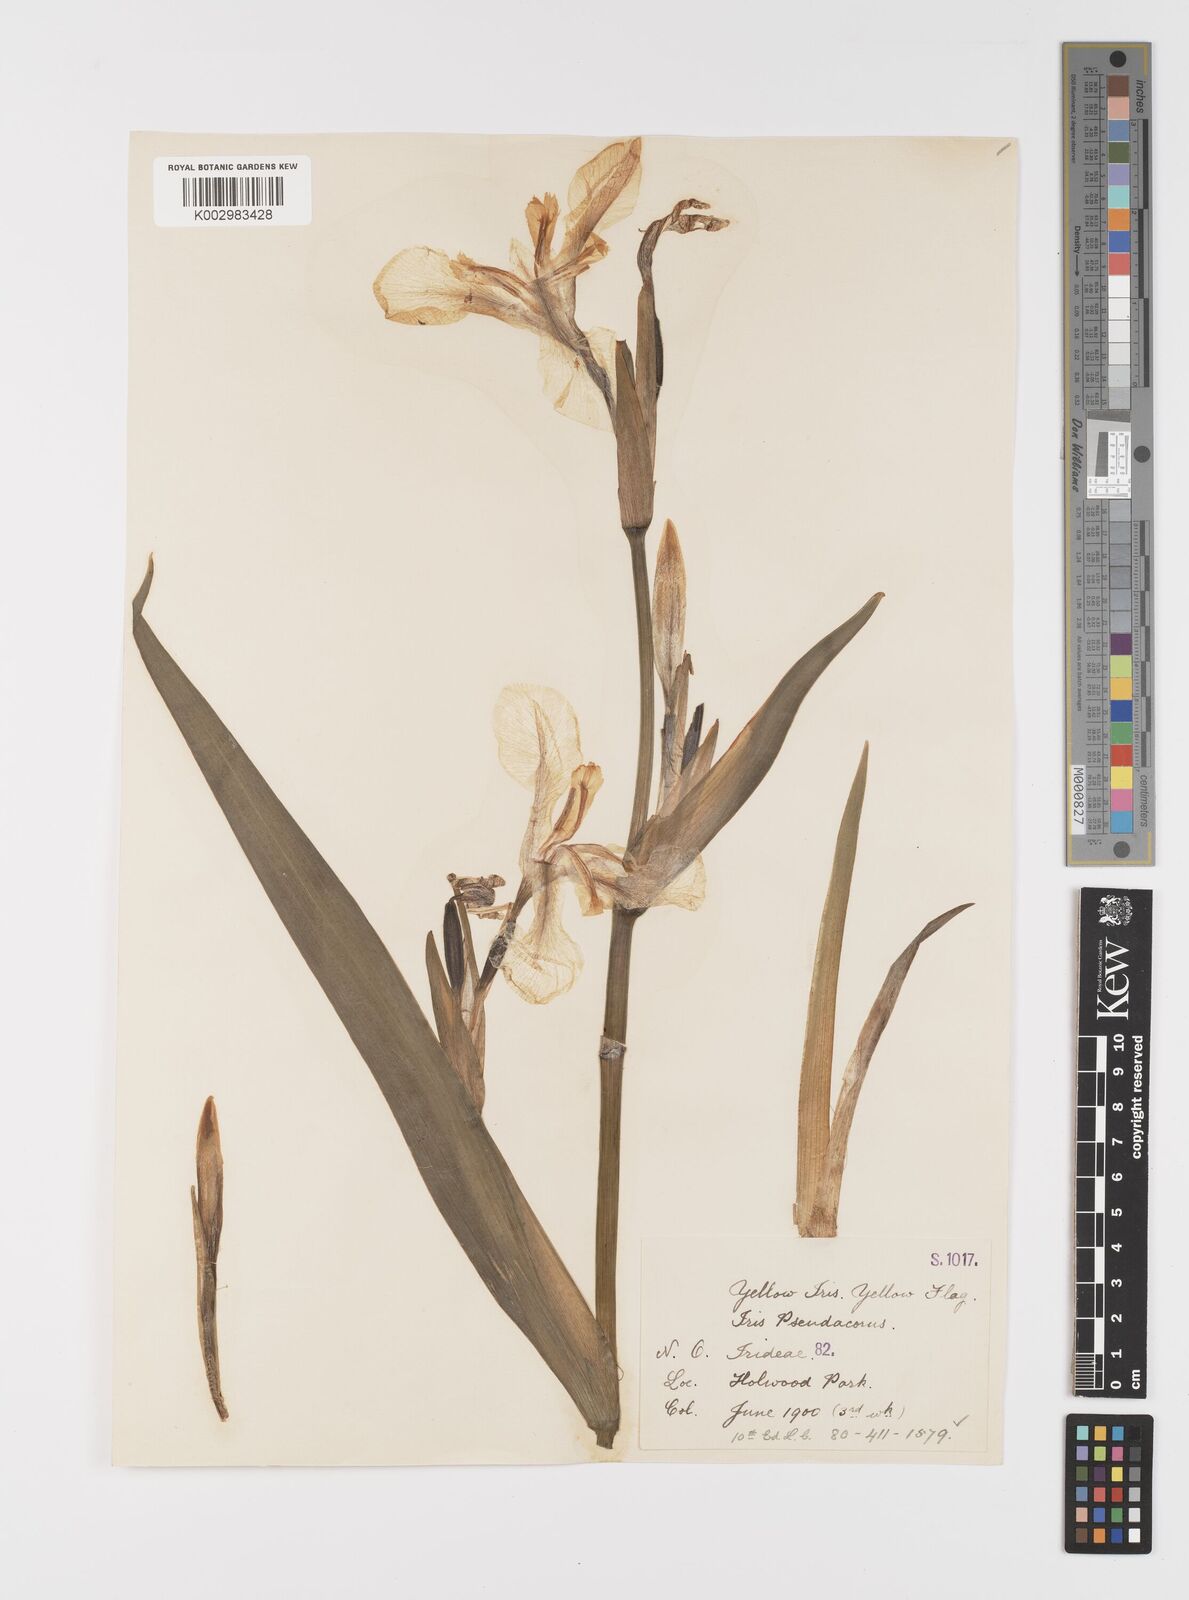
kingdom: Plantae
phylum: Tracheophyta
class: Liliopsida
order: Asparagales
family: Iridaceae
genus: Iris
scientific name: Iris pseudacorus
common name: Yellow flag
